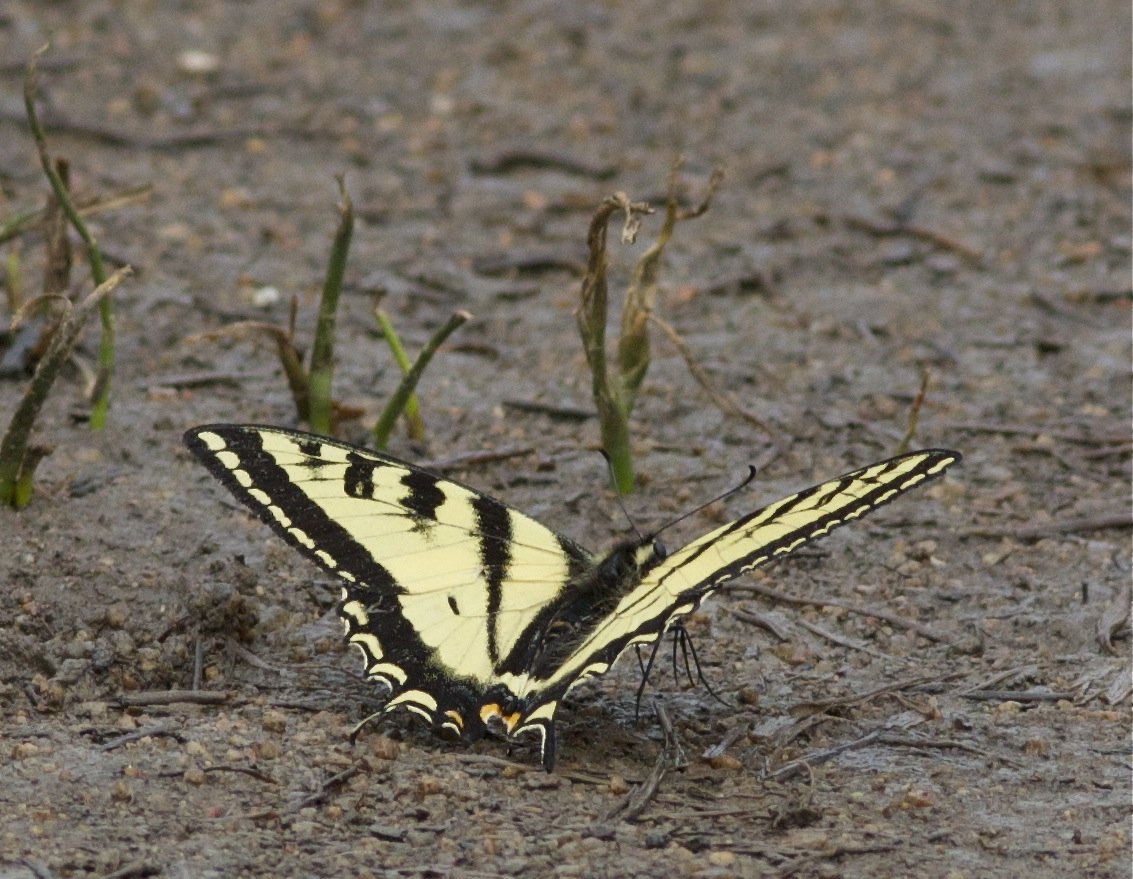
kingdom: Animalia
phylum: Arthropoda
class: Insecta
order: Lepidoptera
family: Papilionidae
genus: Pterourus
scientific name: Pterourus rutulus
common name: Western Tiger Swallowtail
